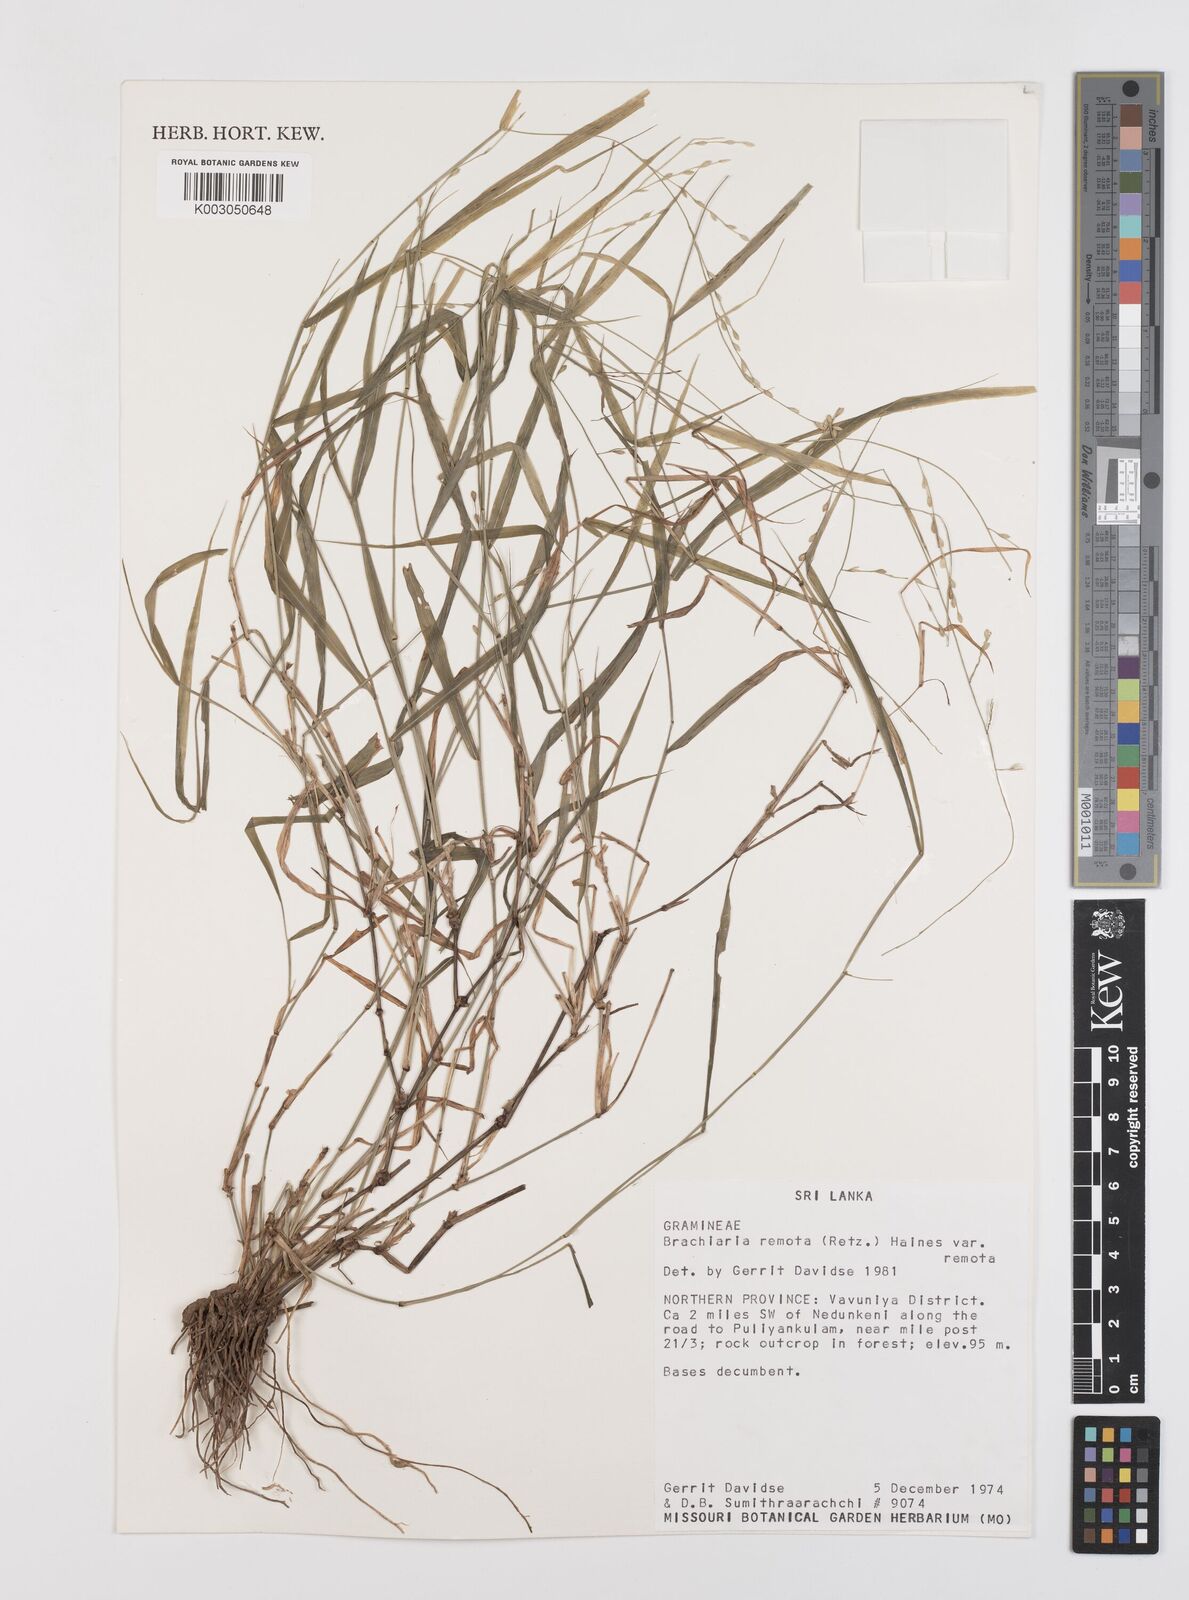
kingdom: Plantae
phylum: Tracheophyta
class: Liliopsida
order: Poales
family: Poaceae
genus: Urochloa
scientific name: Urochloa Brachiaria remota
